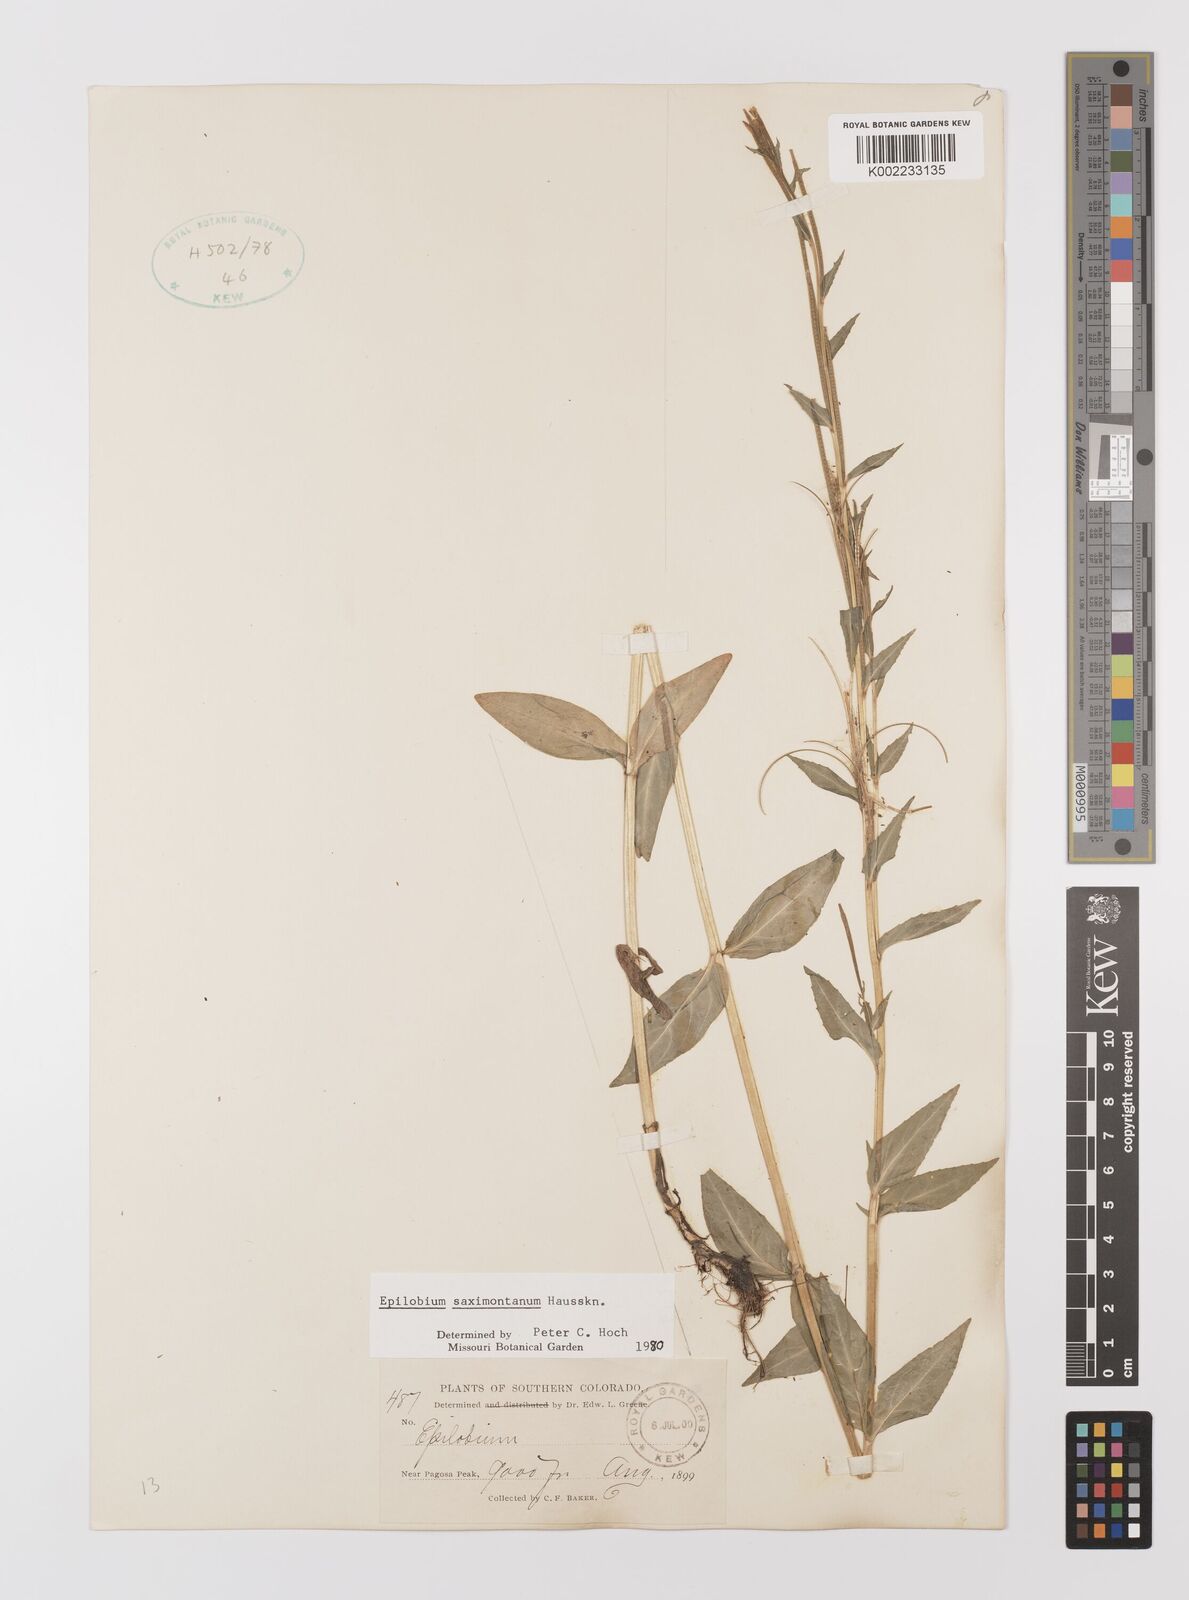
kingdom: Plantae
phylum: Tracheophyta
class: Magnoliopsida
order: Myrtales
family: Onagraceae
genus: Epilobium
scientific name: Epilobium saximontanum
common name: Rocky mountain willowherb
